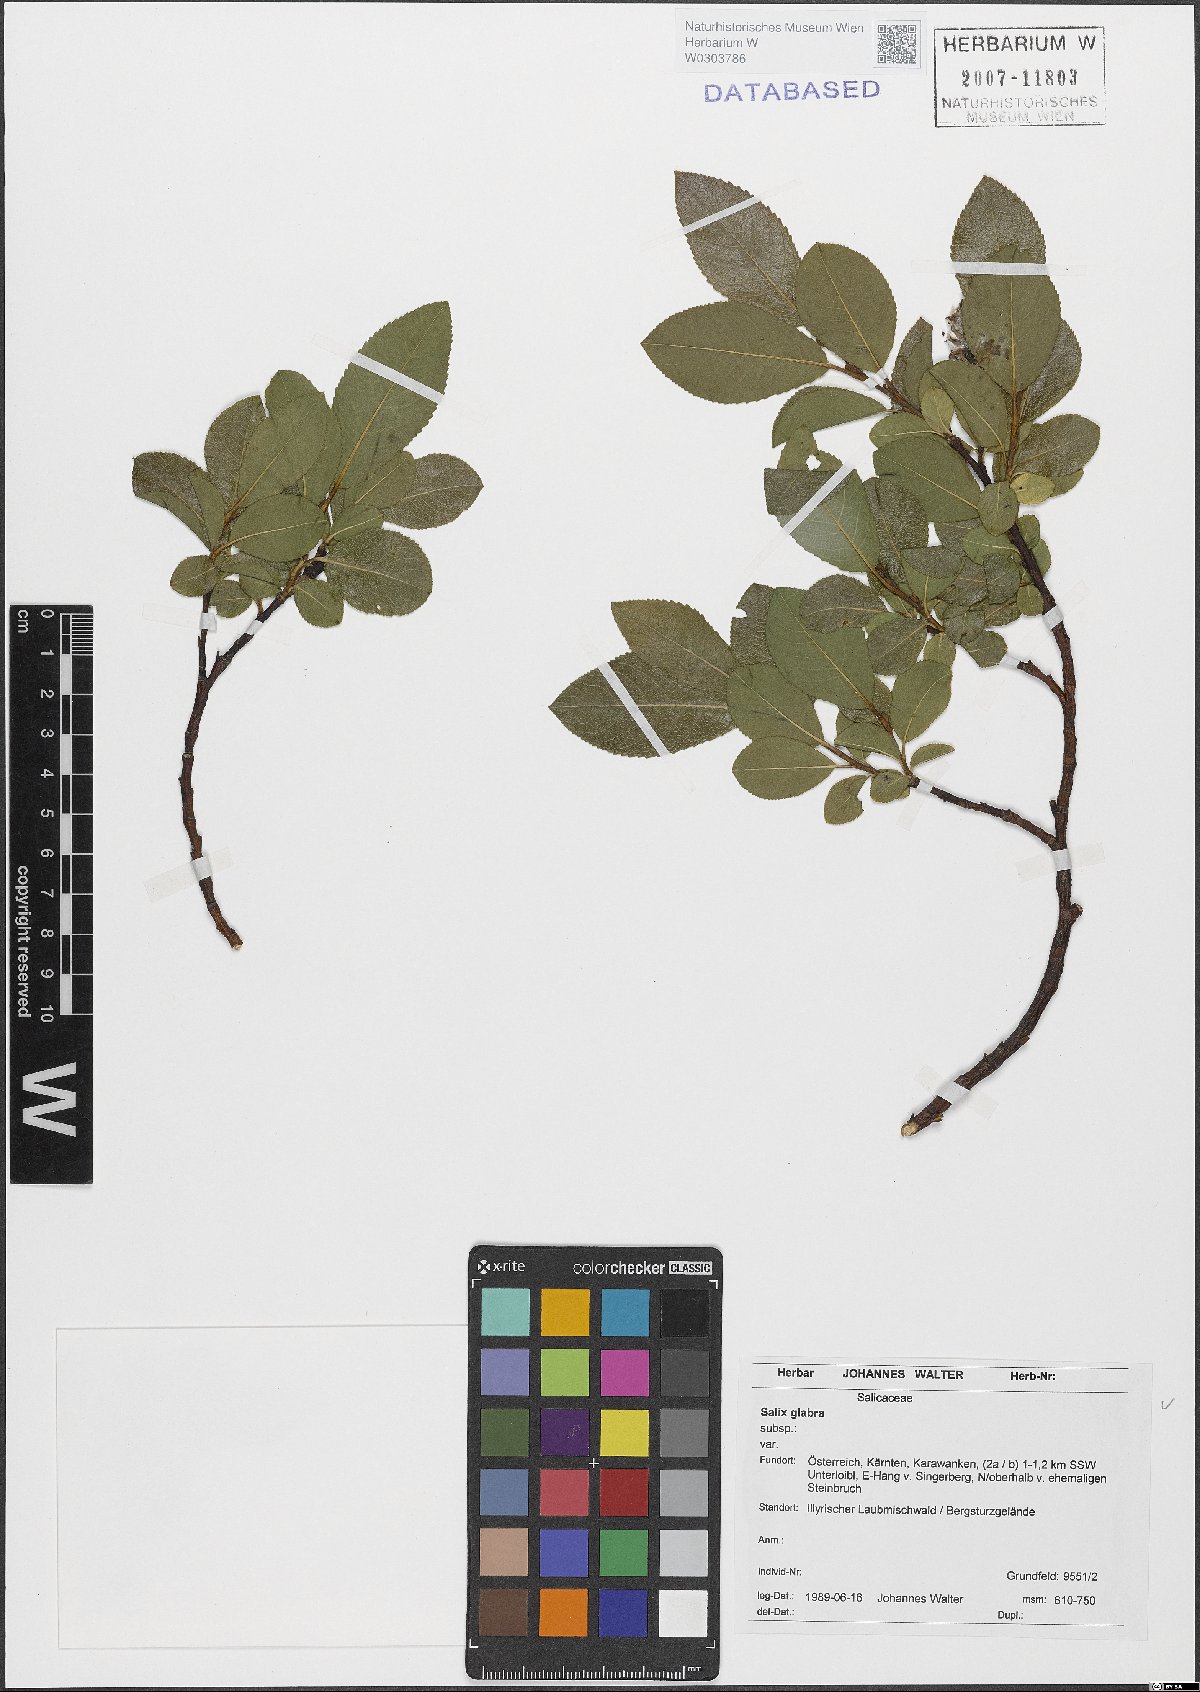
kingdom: Plantae
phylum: Tracheophyta
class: Magnoliopsida
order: Malpighiales
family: Salicaceae
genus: Salix
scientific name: Salix glabra
